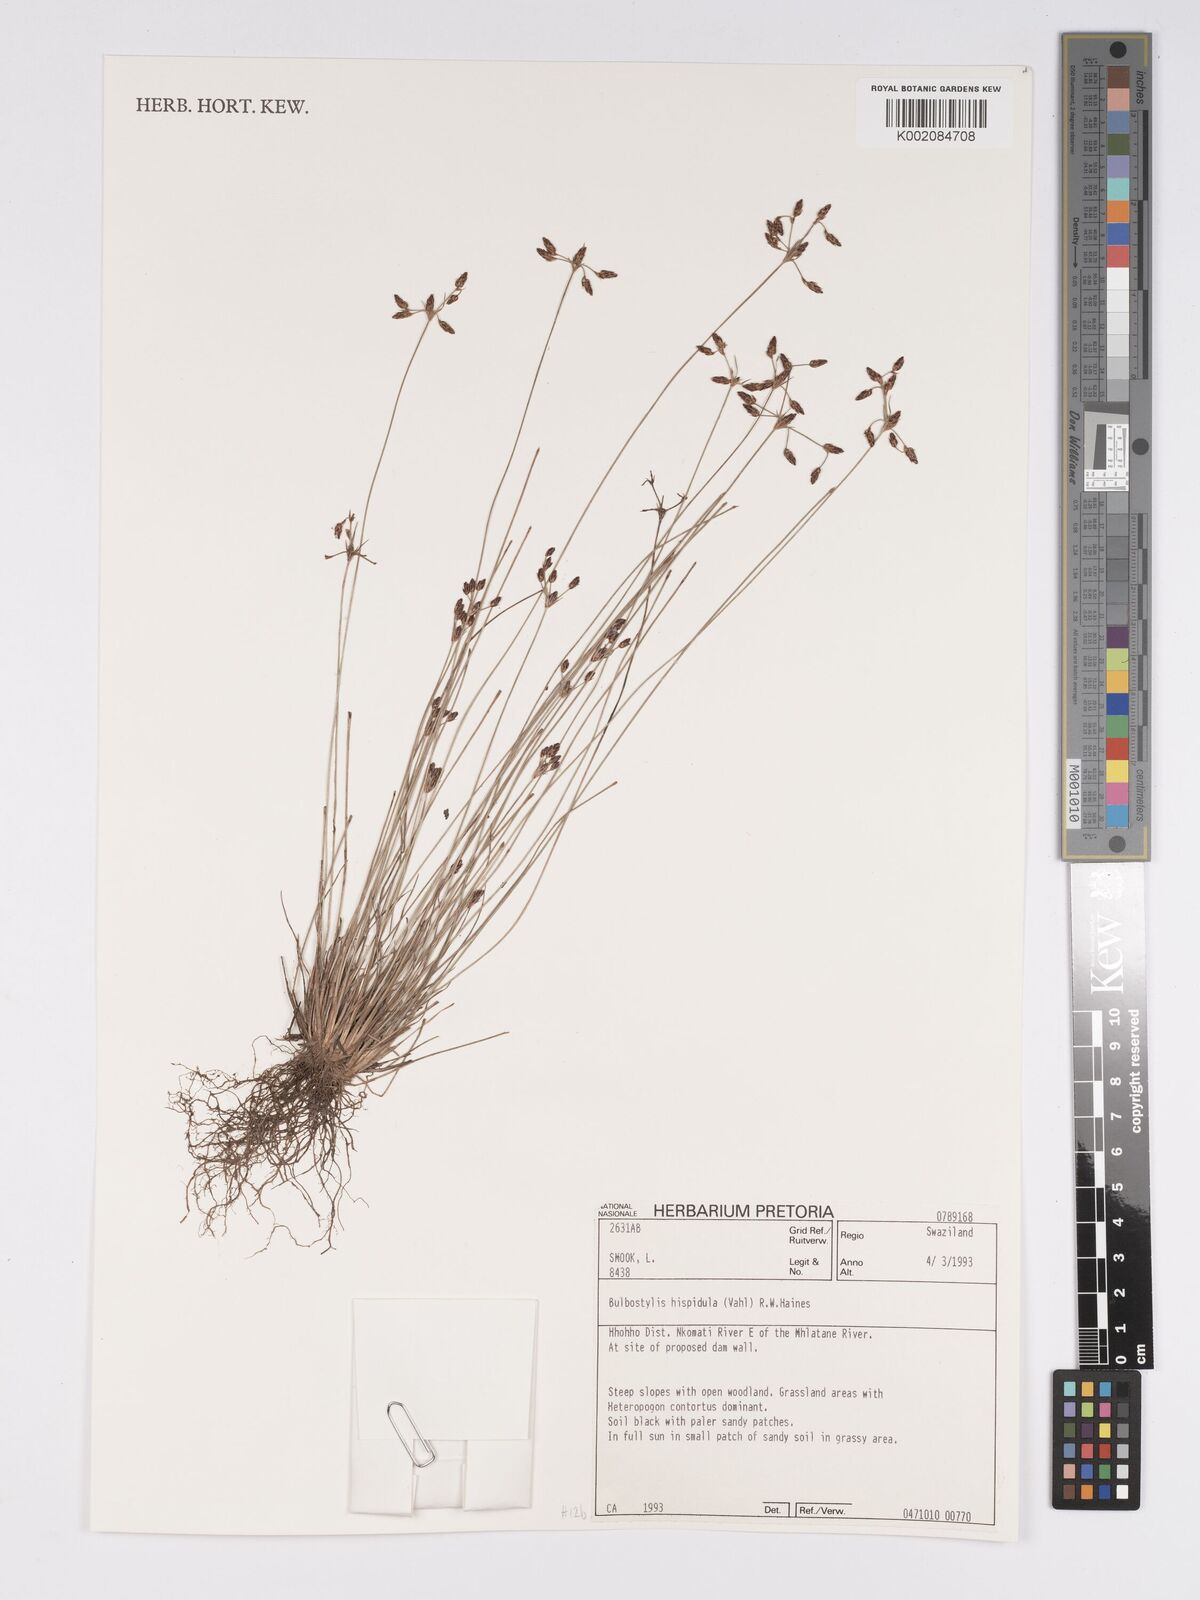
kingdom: Plantae
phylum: Tracheophyta
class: Liliopsida
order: Poales
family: Cyperaceae
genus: Bulbostylis
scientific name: Bulbostylis hispidula
